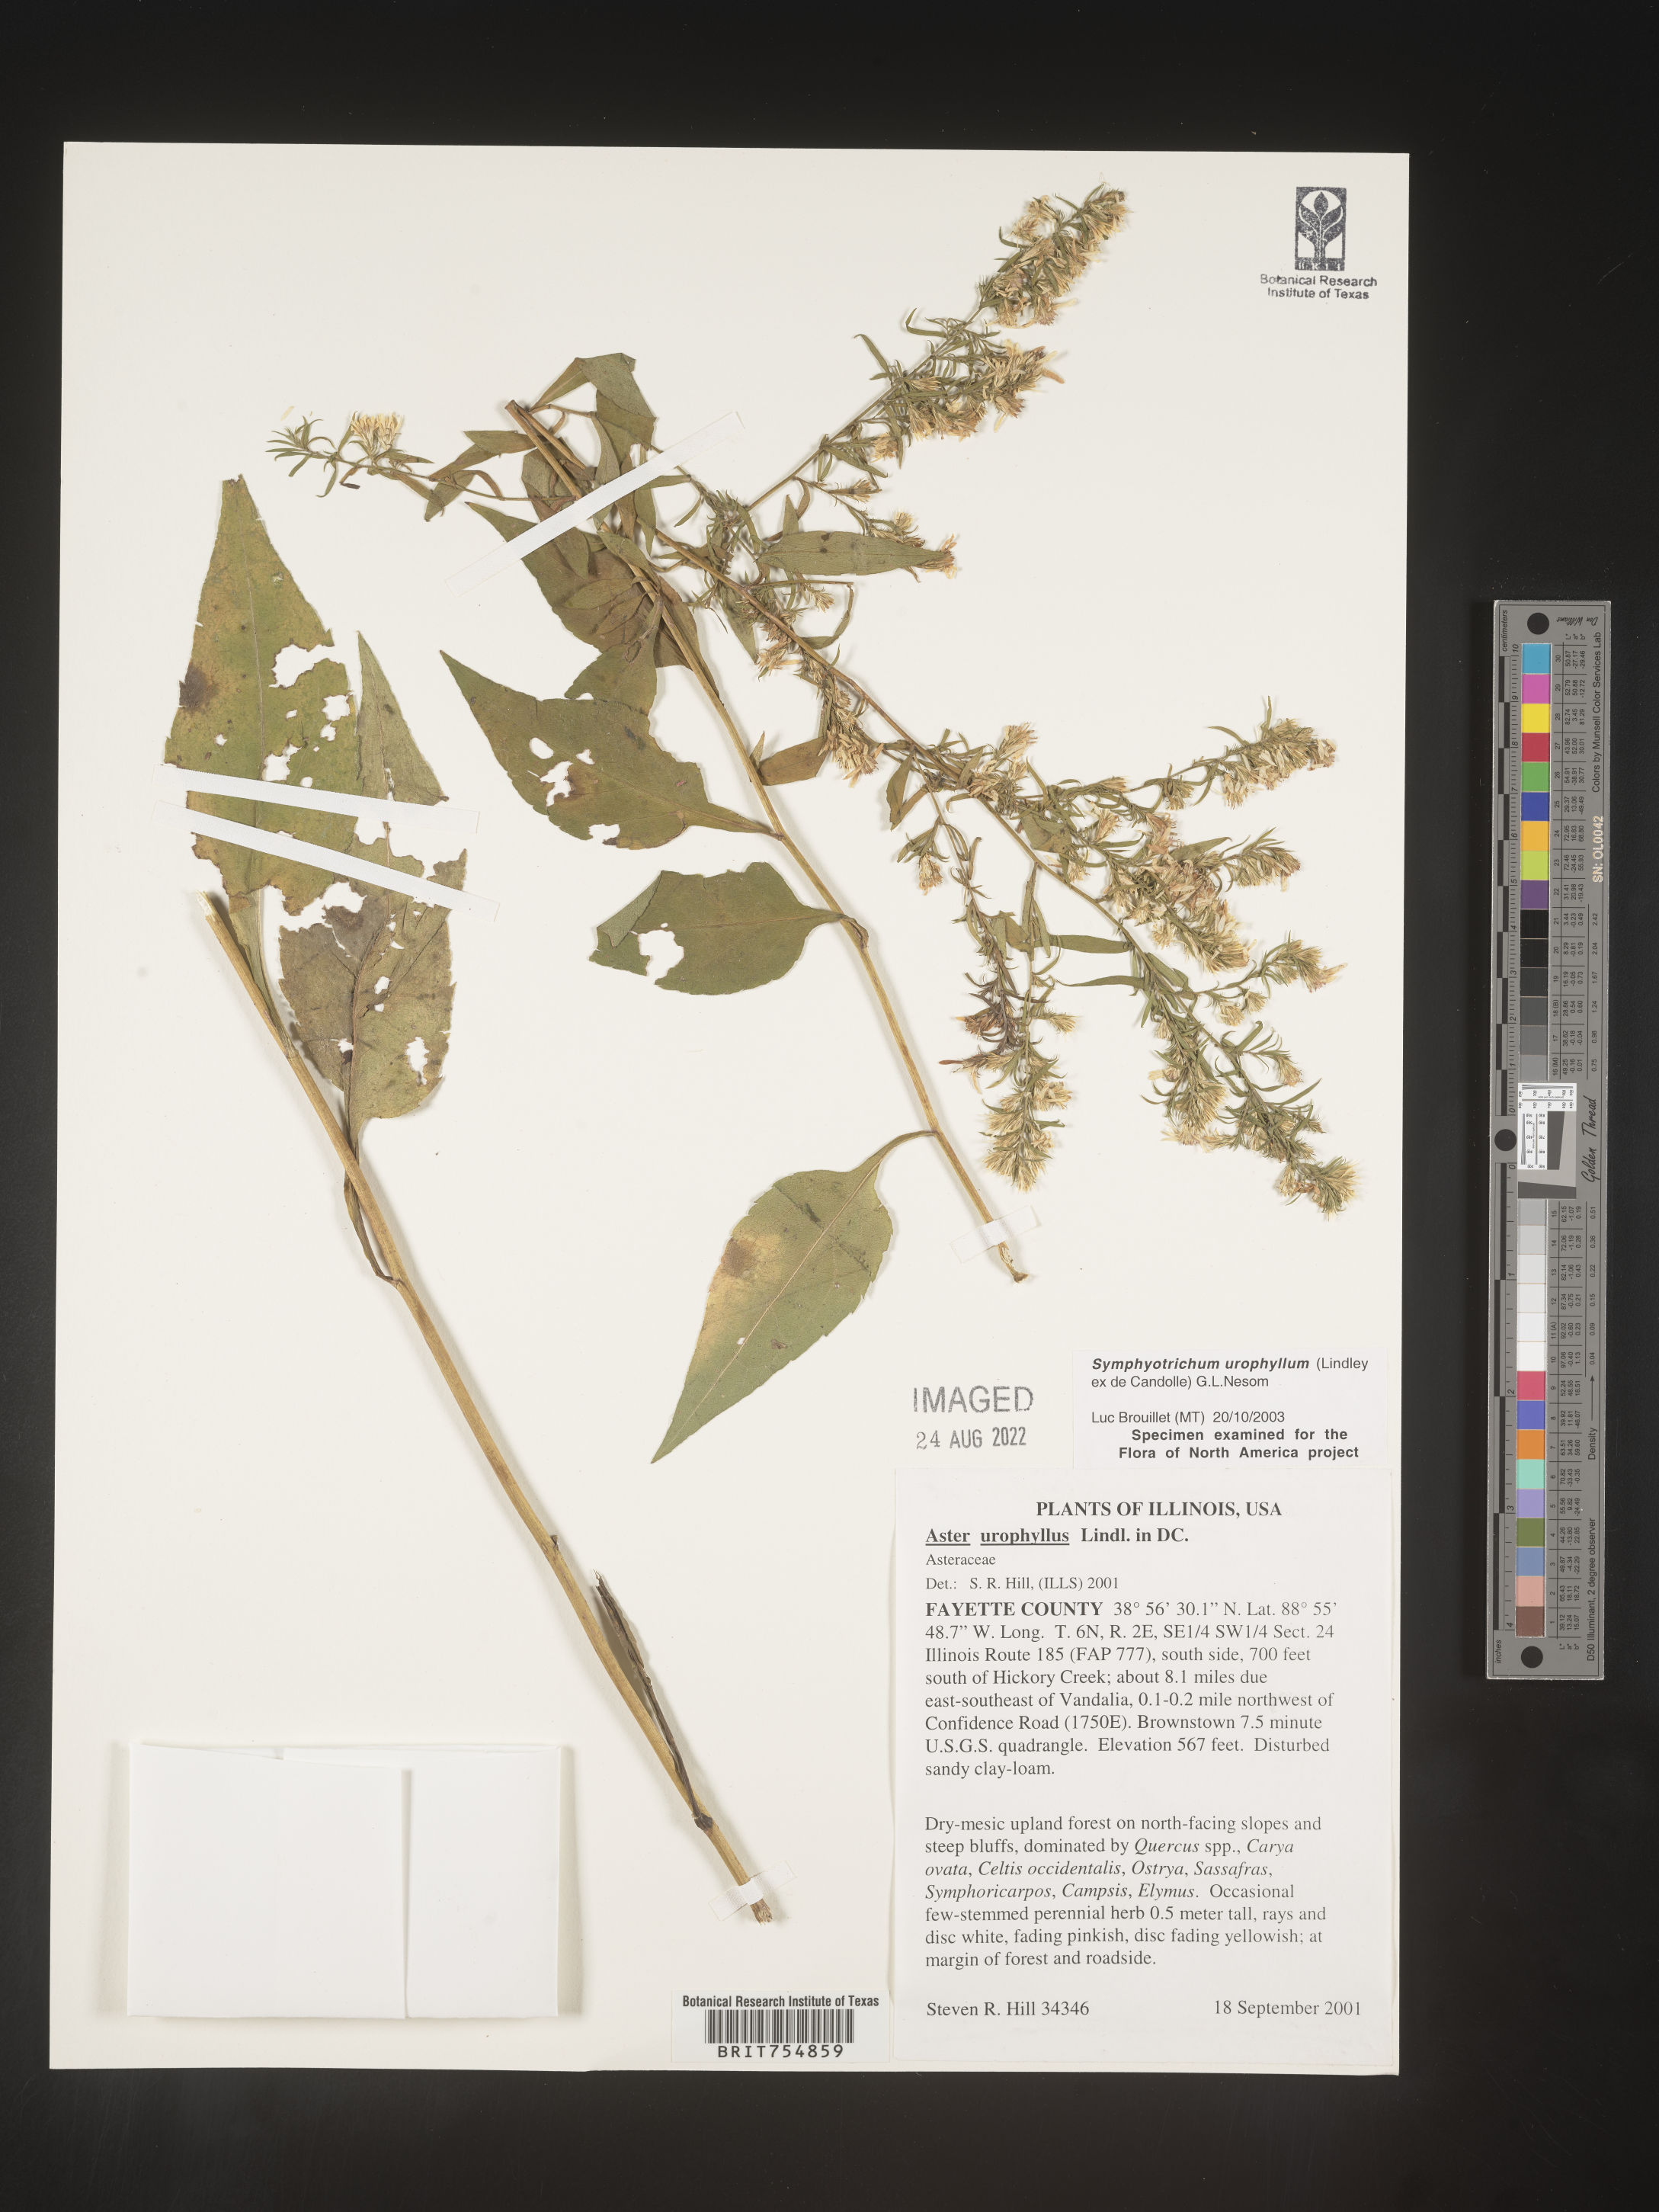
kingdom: Plantae
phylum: Tracheophyta
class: Magnoliopsida
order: Asterales
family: Asteraceae
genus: Symphyotrichum
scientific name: Symphyotrichum urophyllum
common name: Arrow-leaved aster
